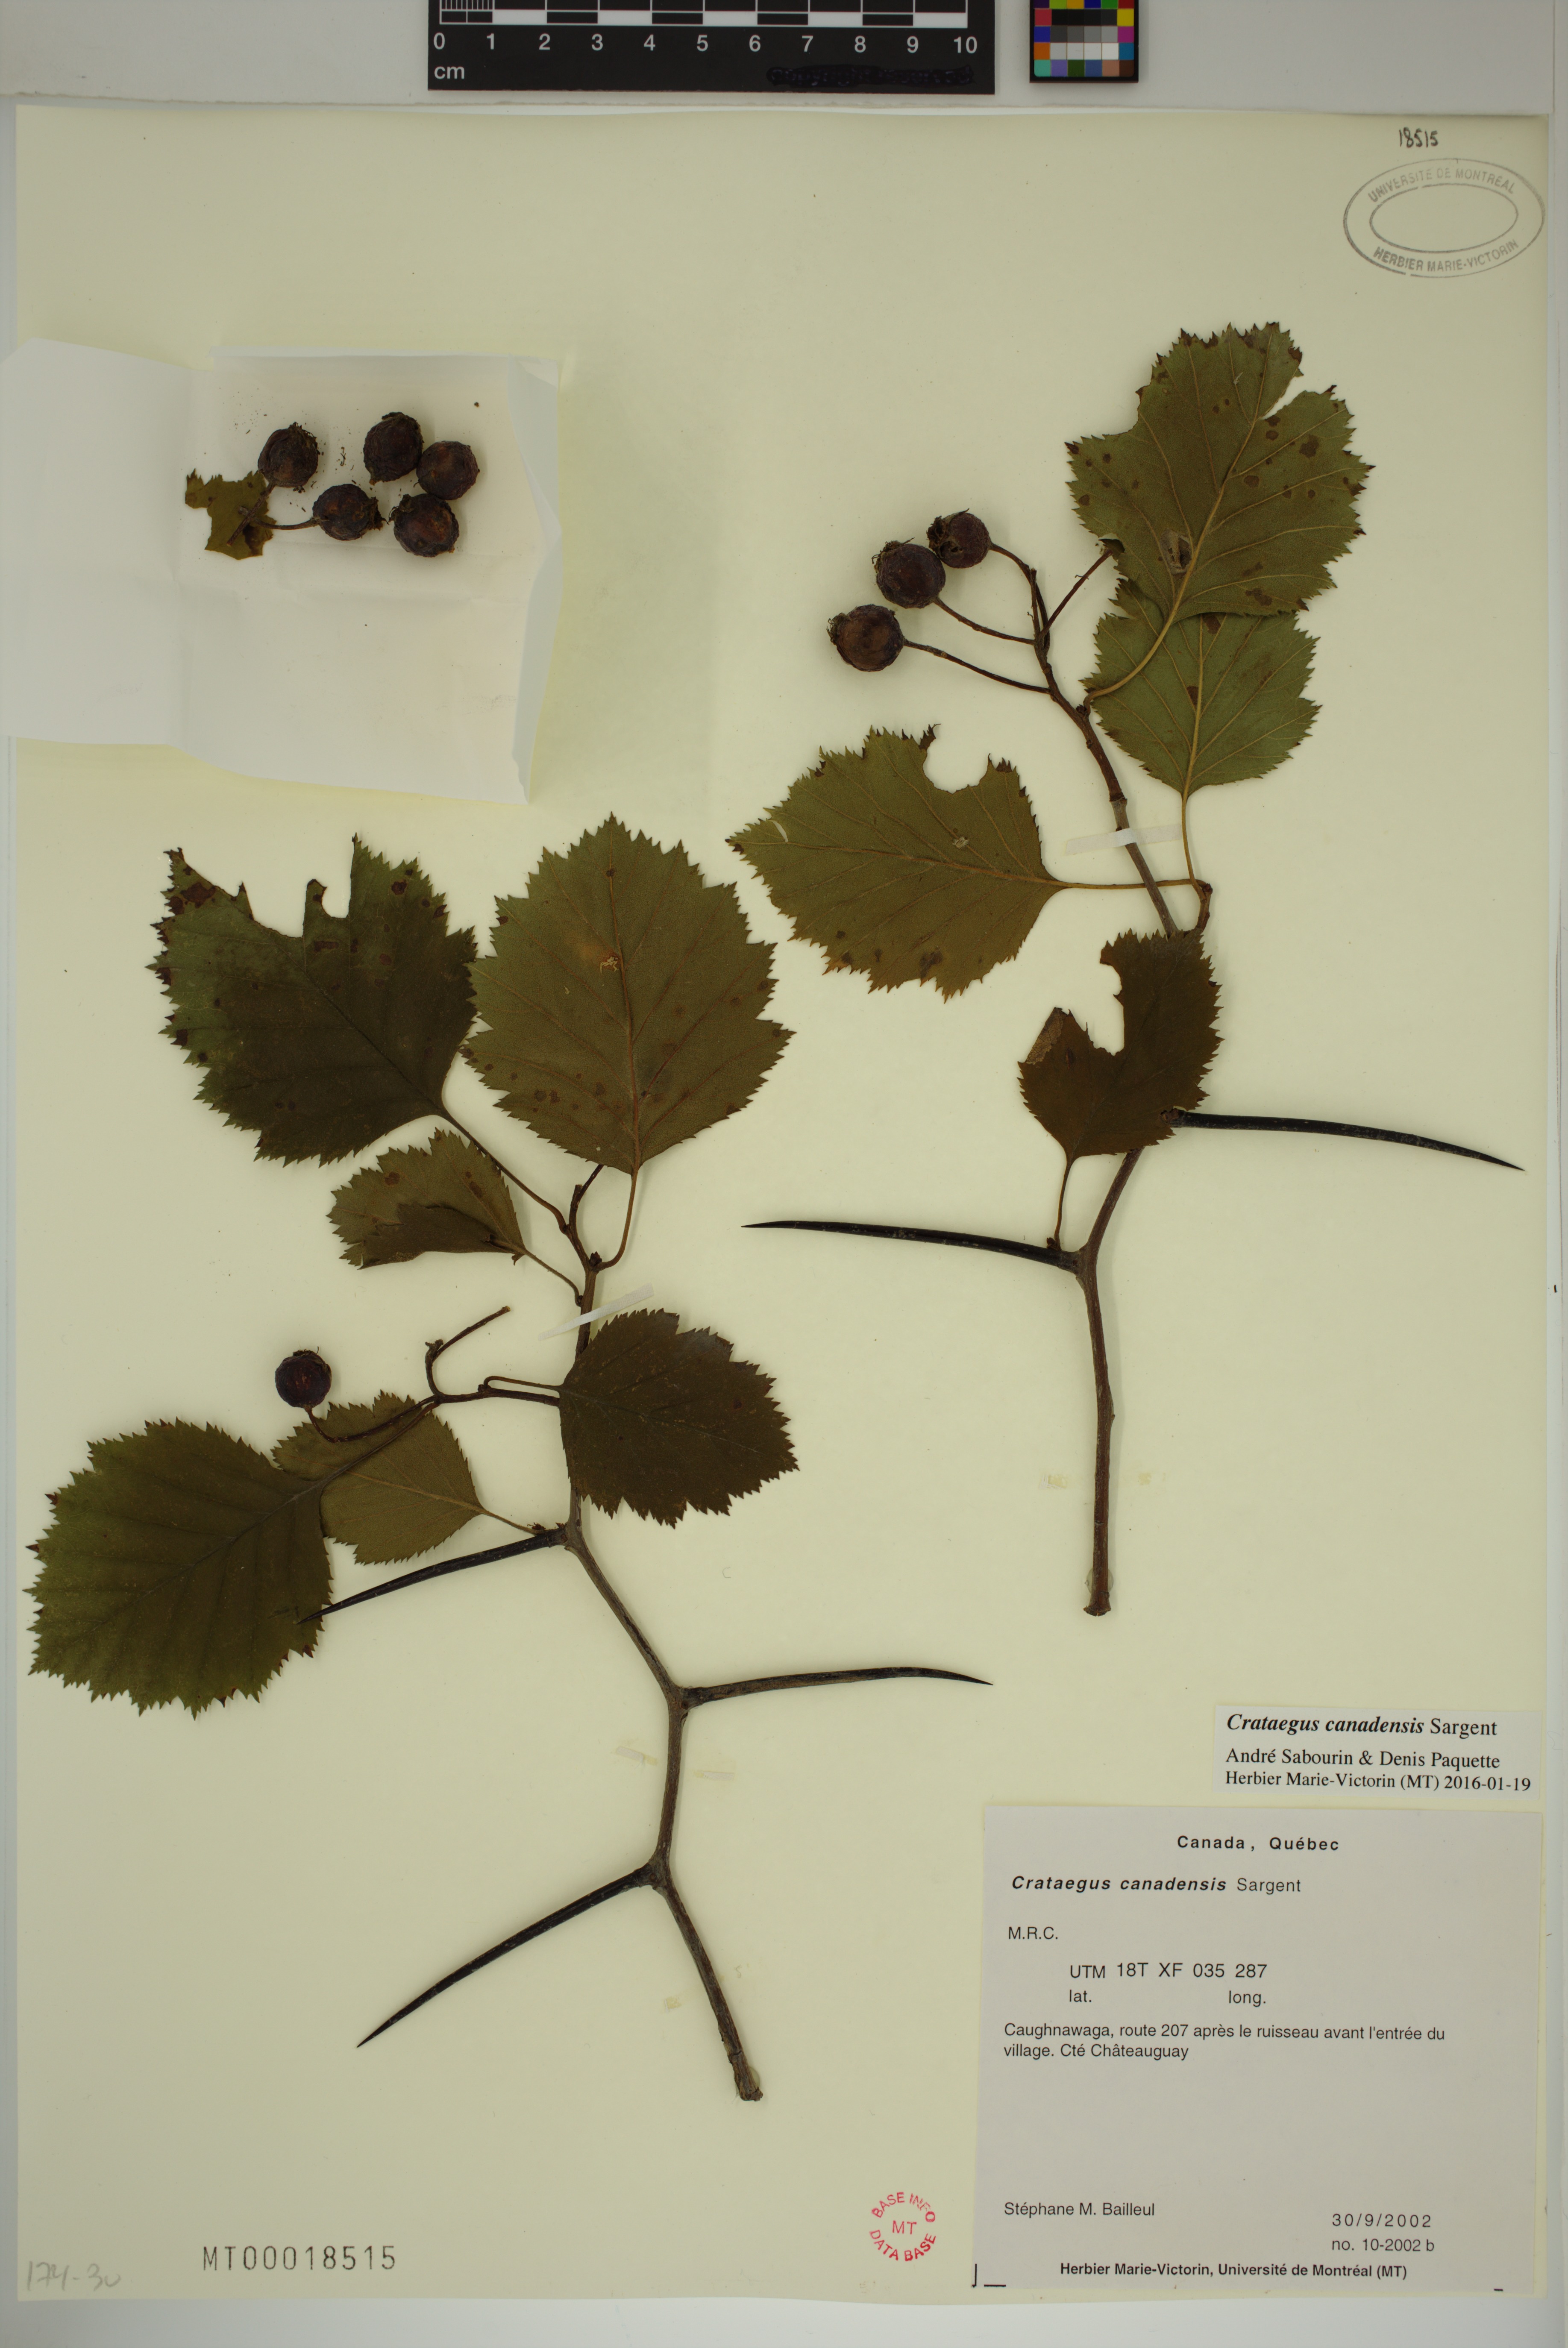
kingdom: Plantae
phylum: Tracheophyta
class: Magnoliopsida
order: Rosales
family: Rosaceae
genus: Crataegus
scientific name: Crataegus submollis
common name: Hairy cockspurthorn
